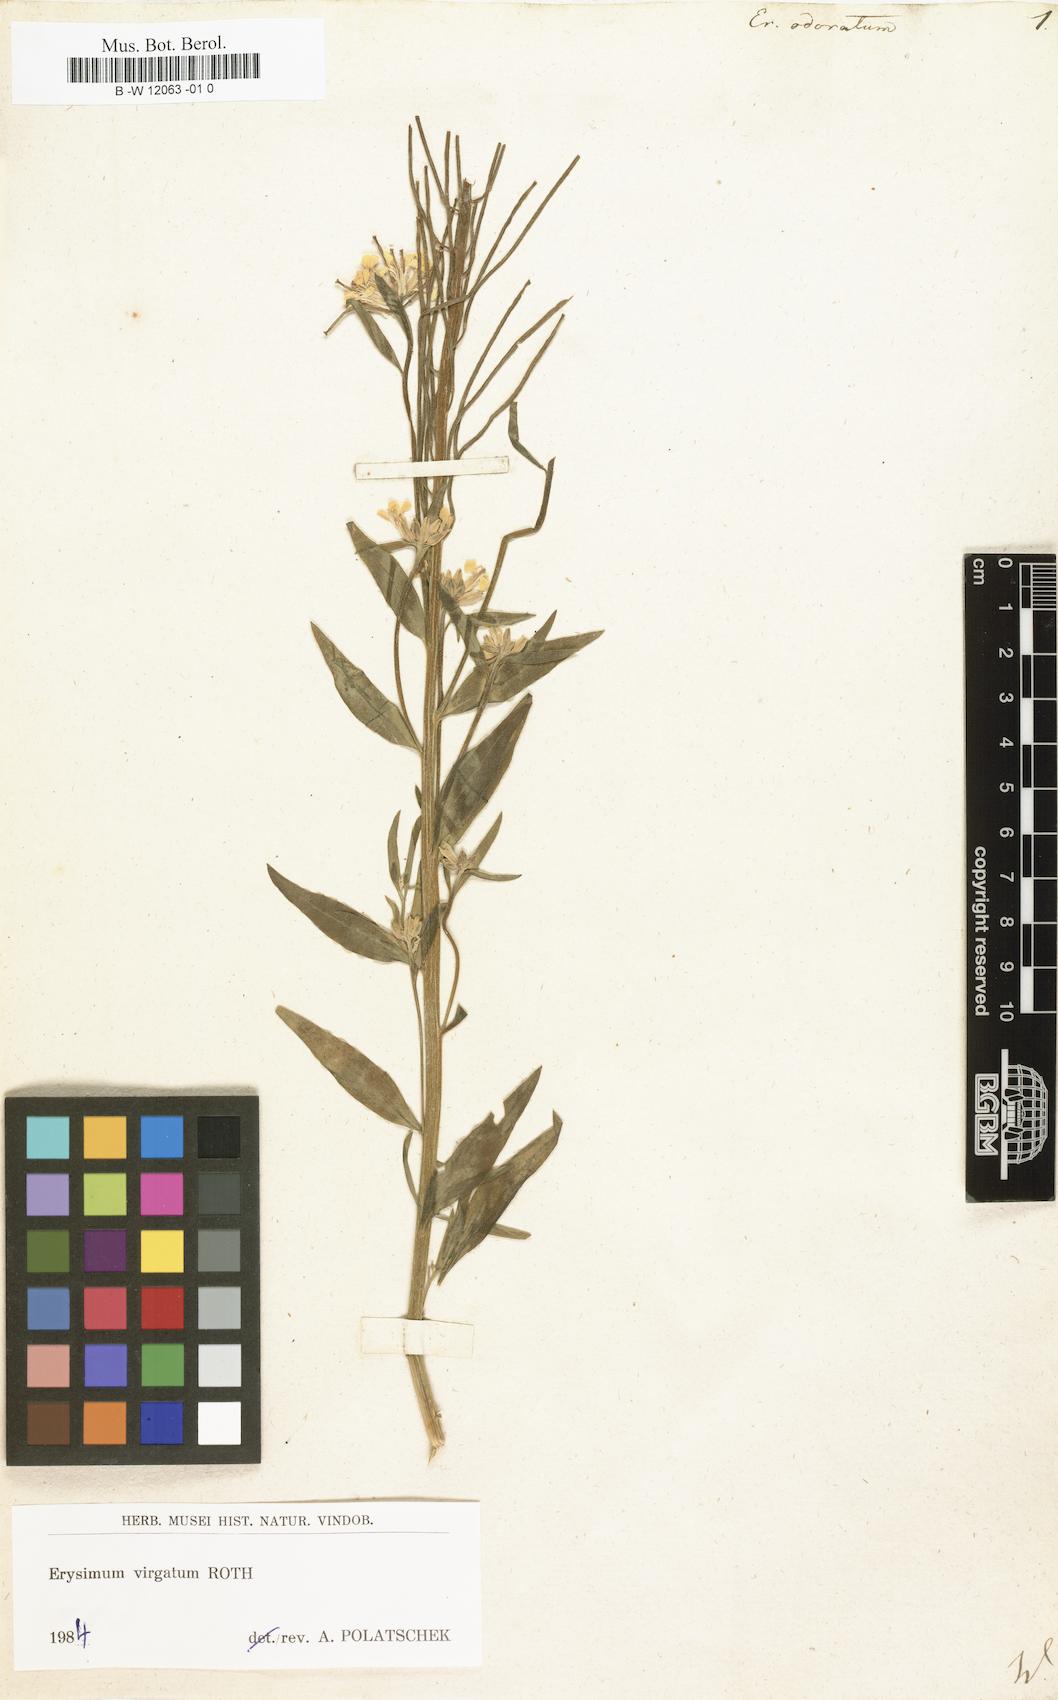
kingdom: Plantae
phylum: Tracheophyta
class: Magnoliopsida
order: Brassicales
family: Brassicaceae
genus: Erysimum
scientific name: Erysimum odoratum
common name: Smelly wallflower
